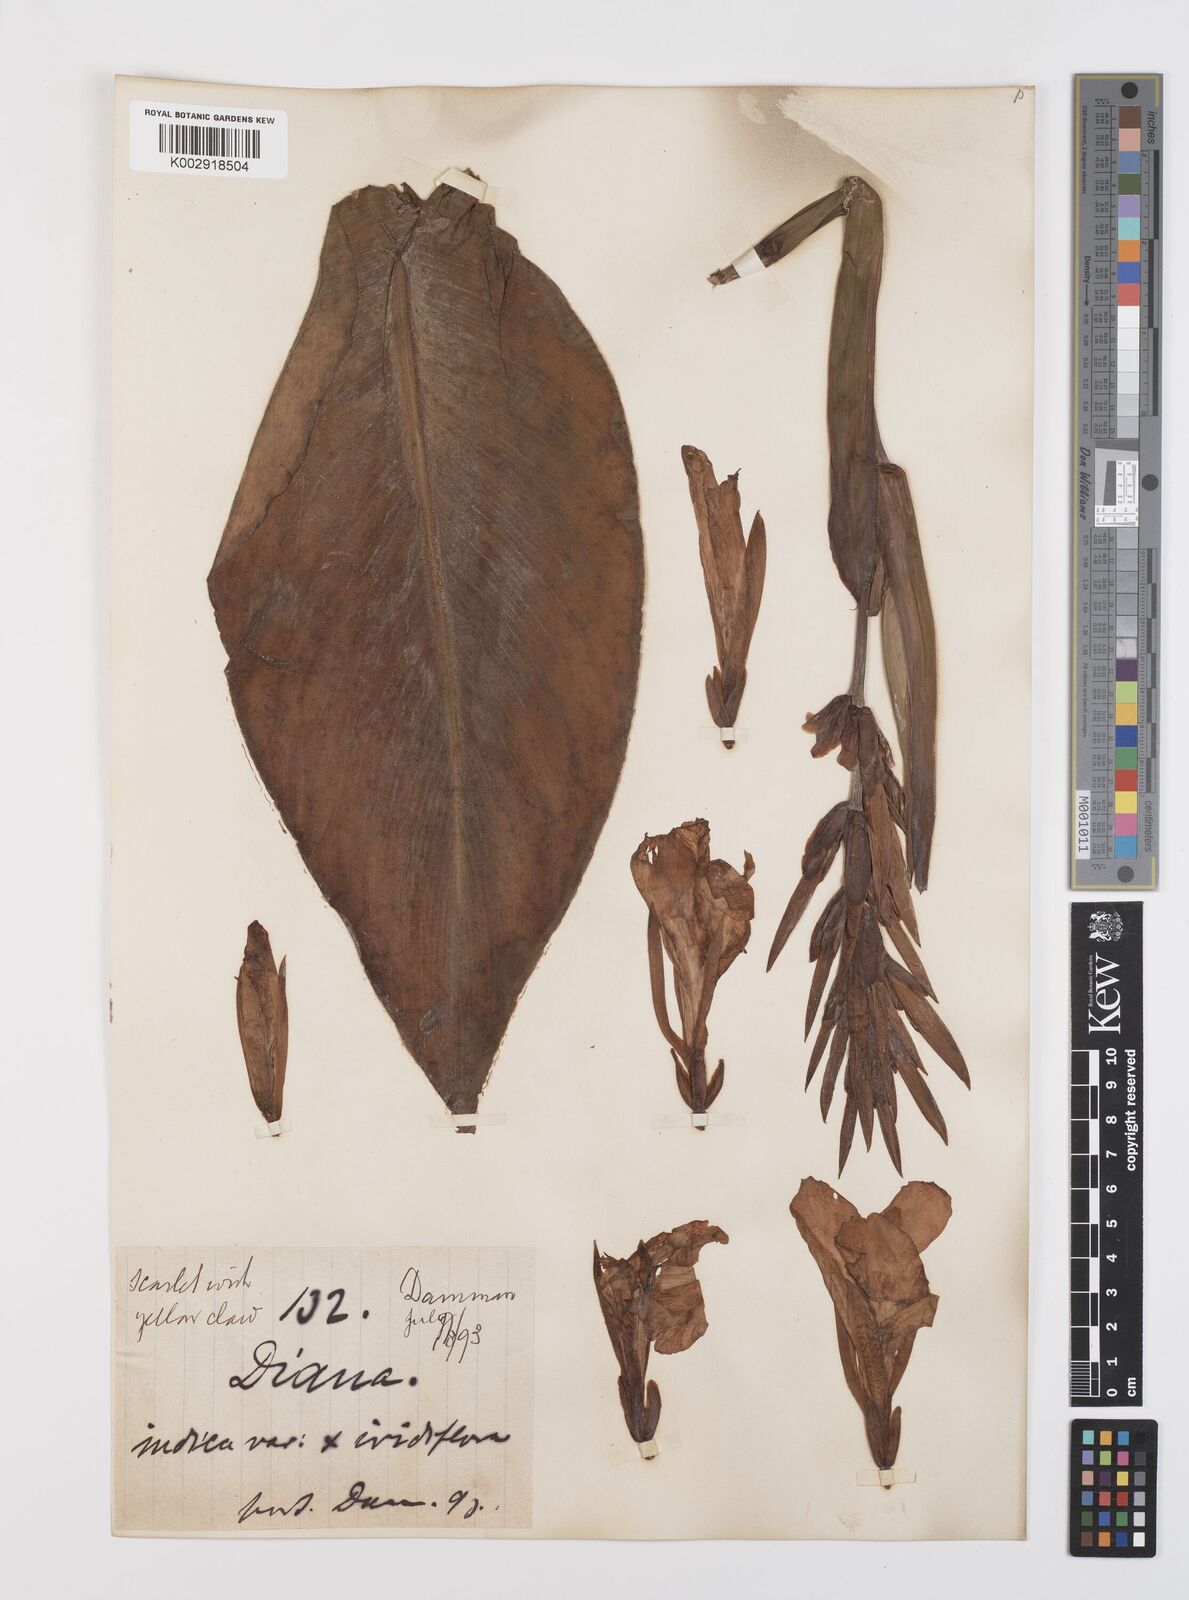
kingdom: Plantae
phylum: Tracheophyta
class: Liliopsida
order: Zingiberales
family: Cannaceae
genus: Canna
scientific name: Canna indica
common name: Indian shot
